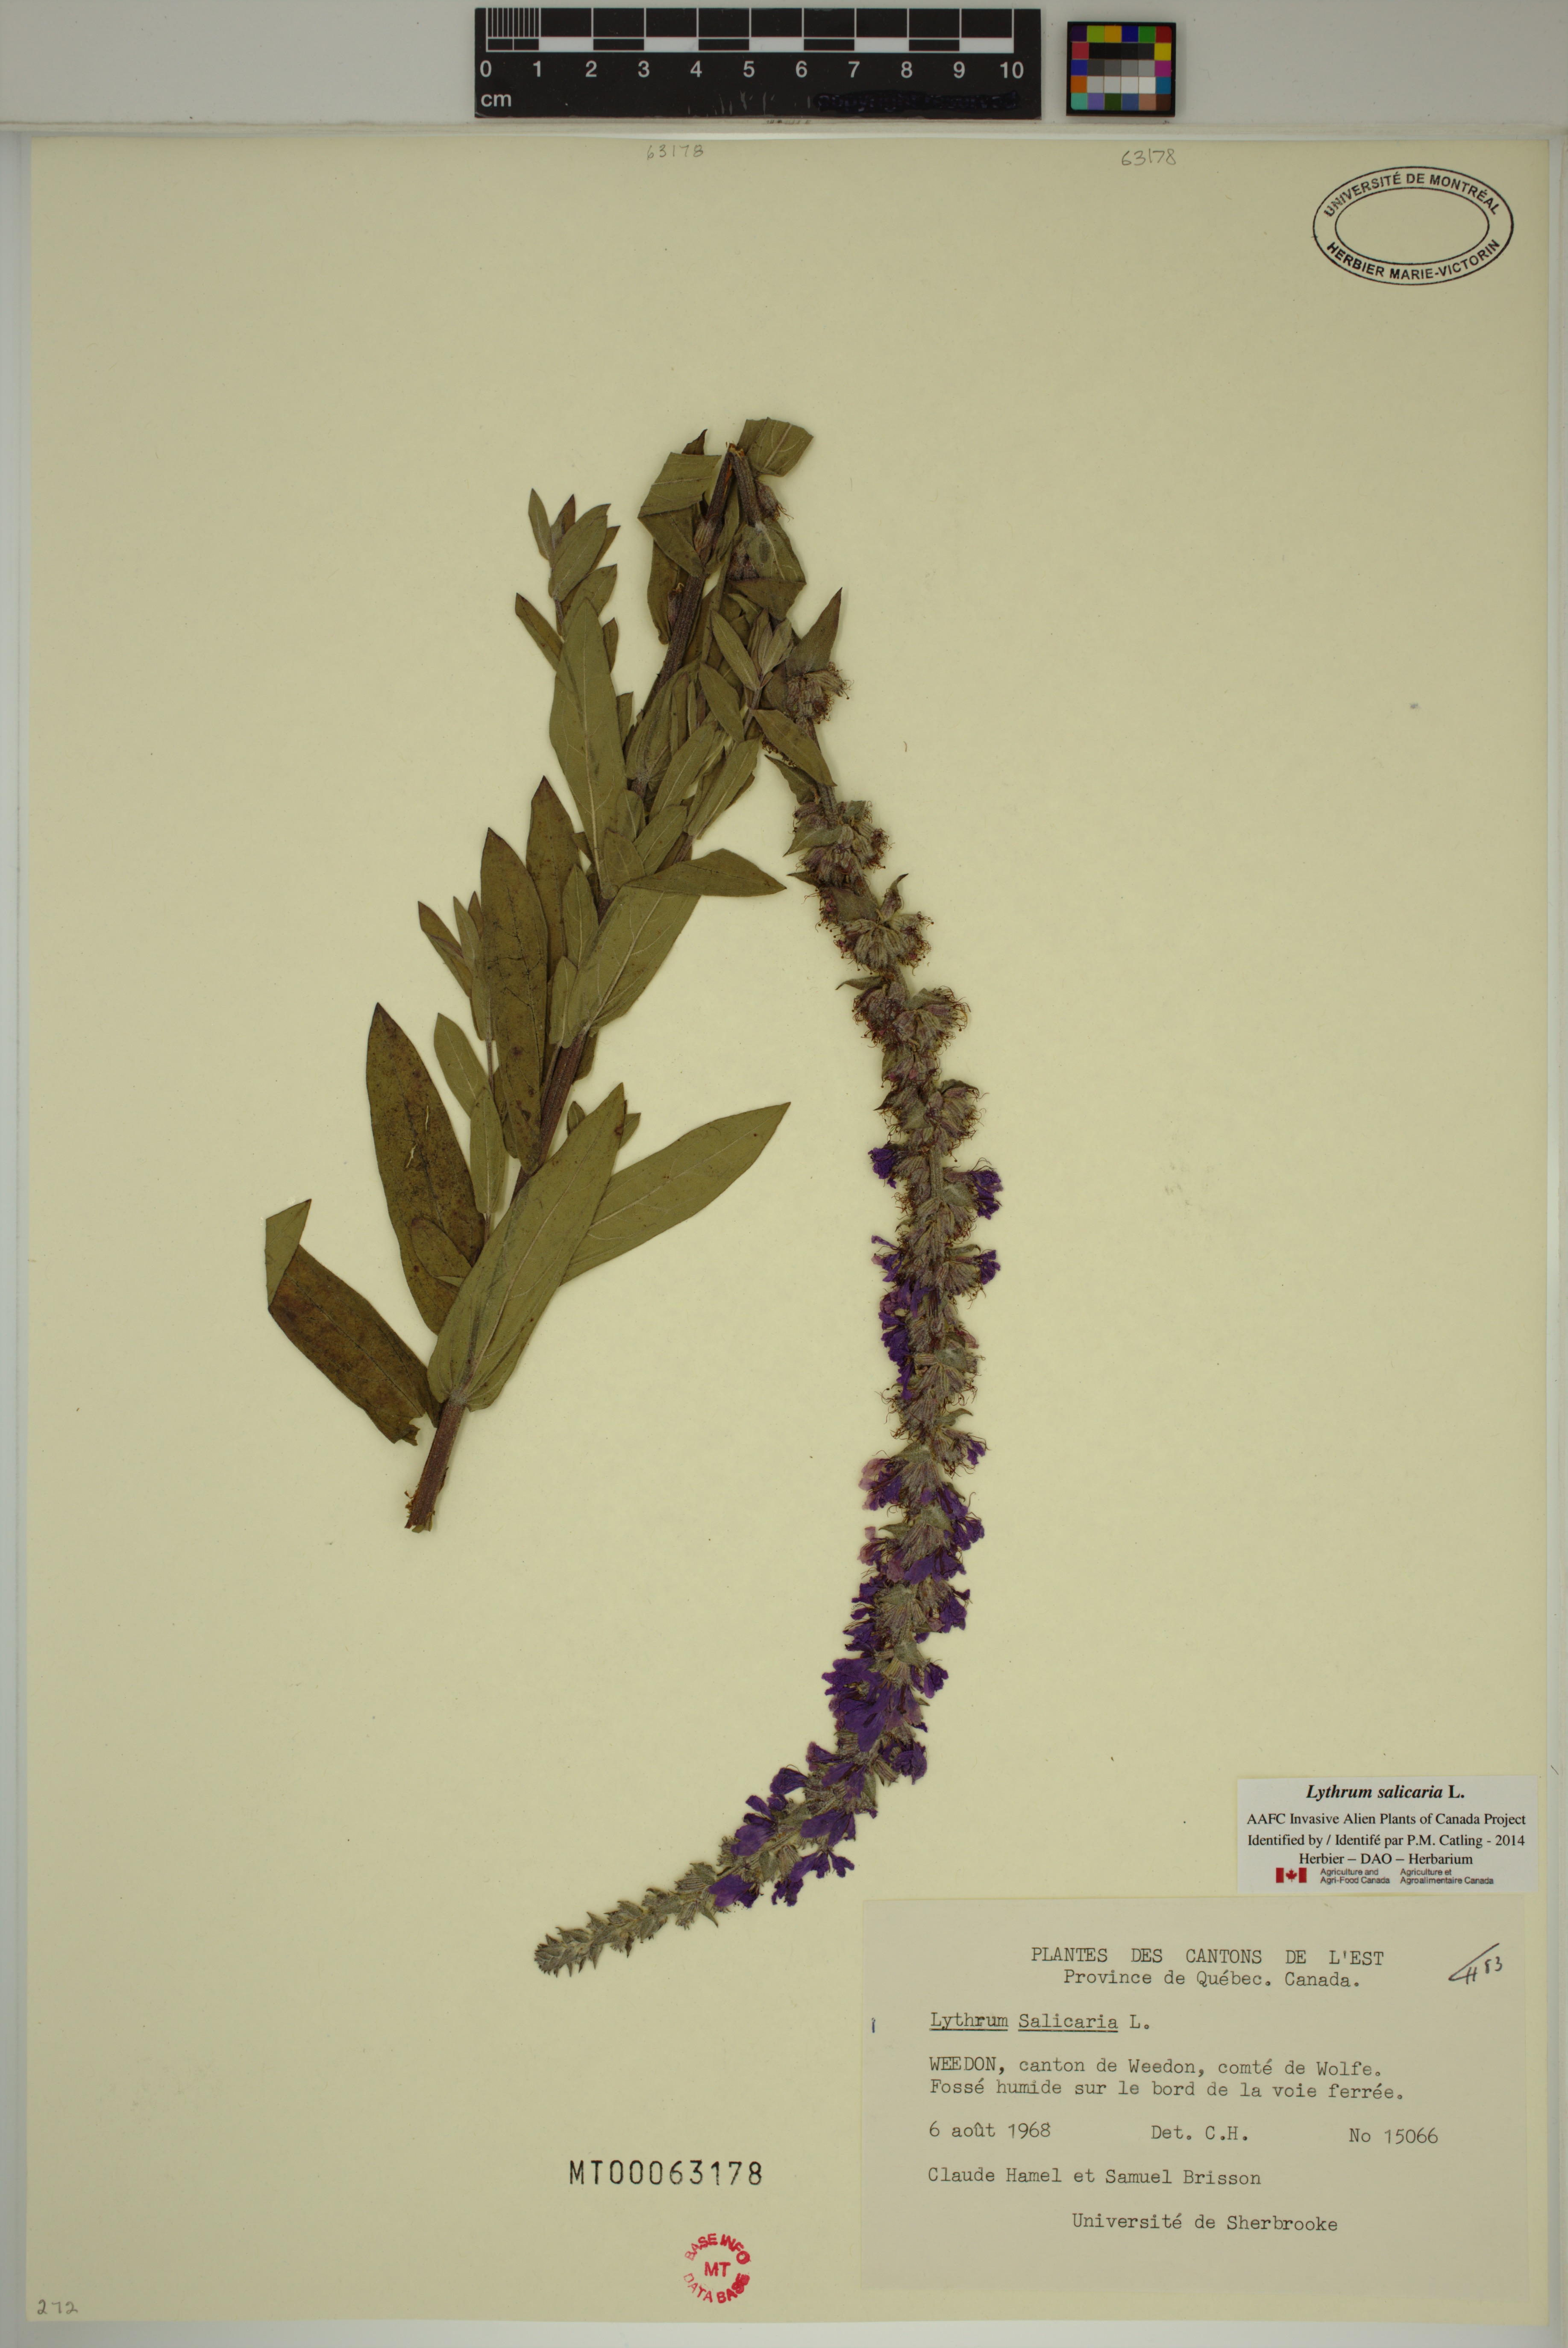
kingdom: Plantae
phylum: Tracheophyta
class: Magnoliopsida
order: Myrtales
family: Lythraceae
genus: Lythrum
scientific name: Lythrum salicaria
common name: Purple loosestrife
